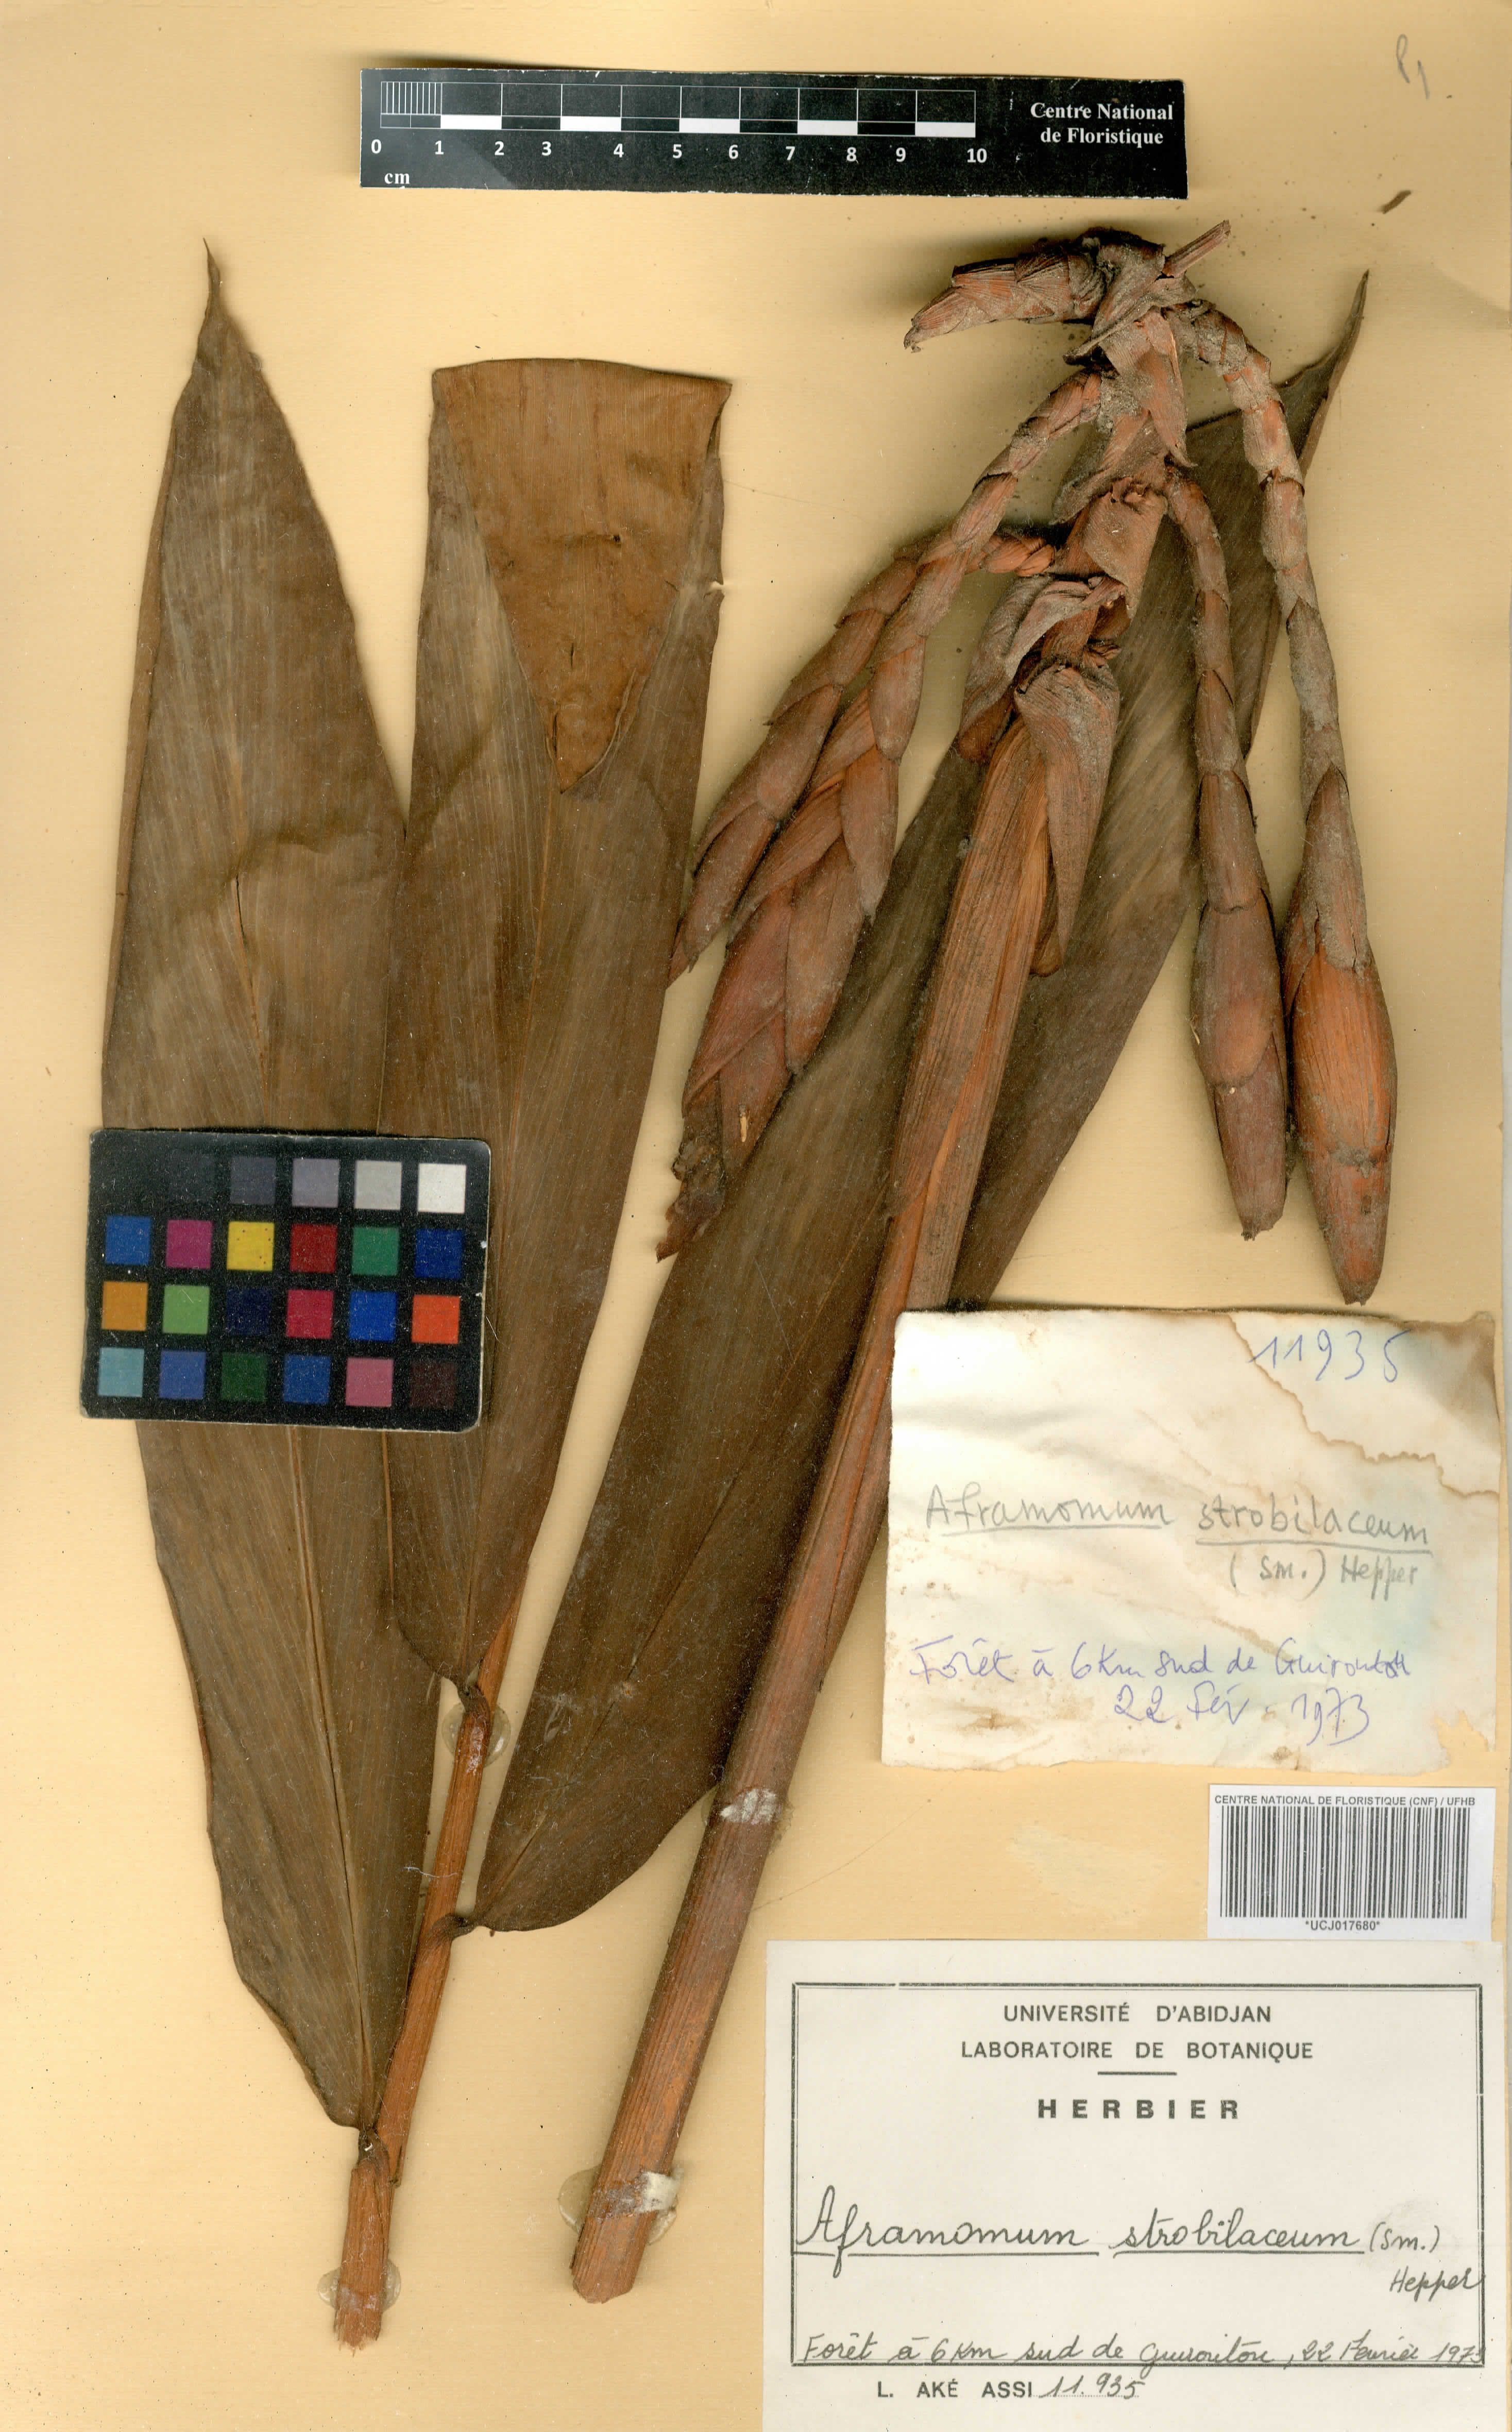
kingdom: Plantae
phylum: Tracheophyta
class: Liliopsida
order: Zingiberales
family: Zingiberaceae
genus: Aframomum
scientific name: Aframomum strobilaceum
